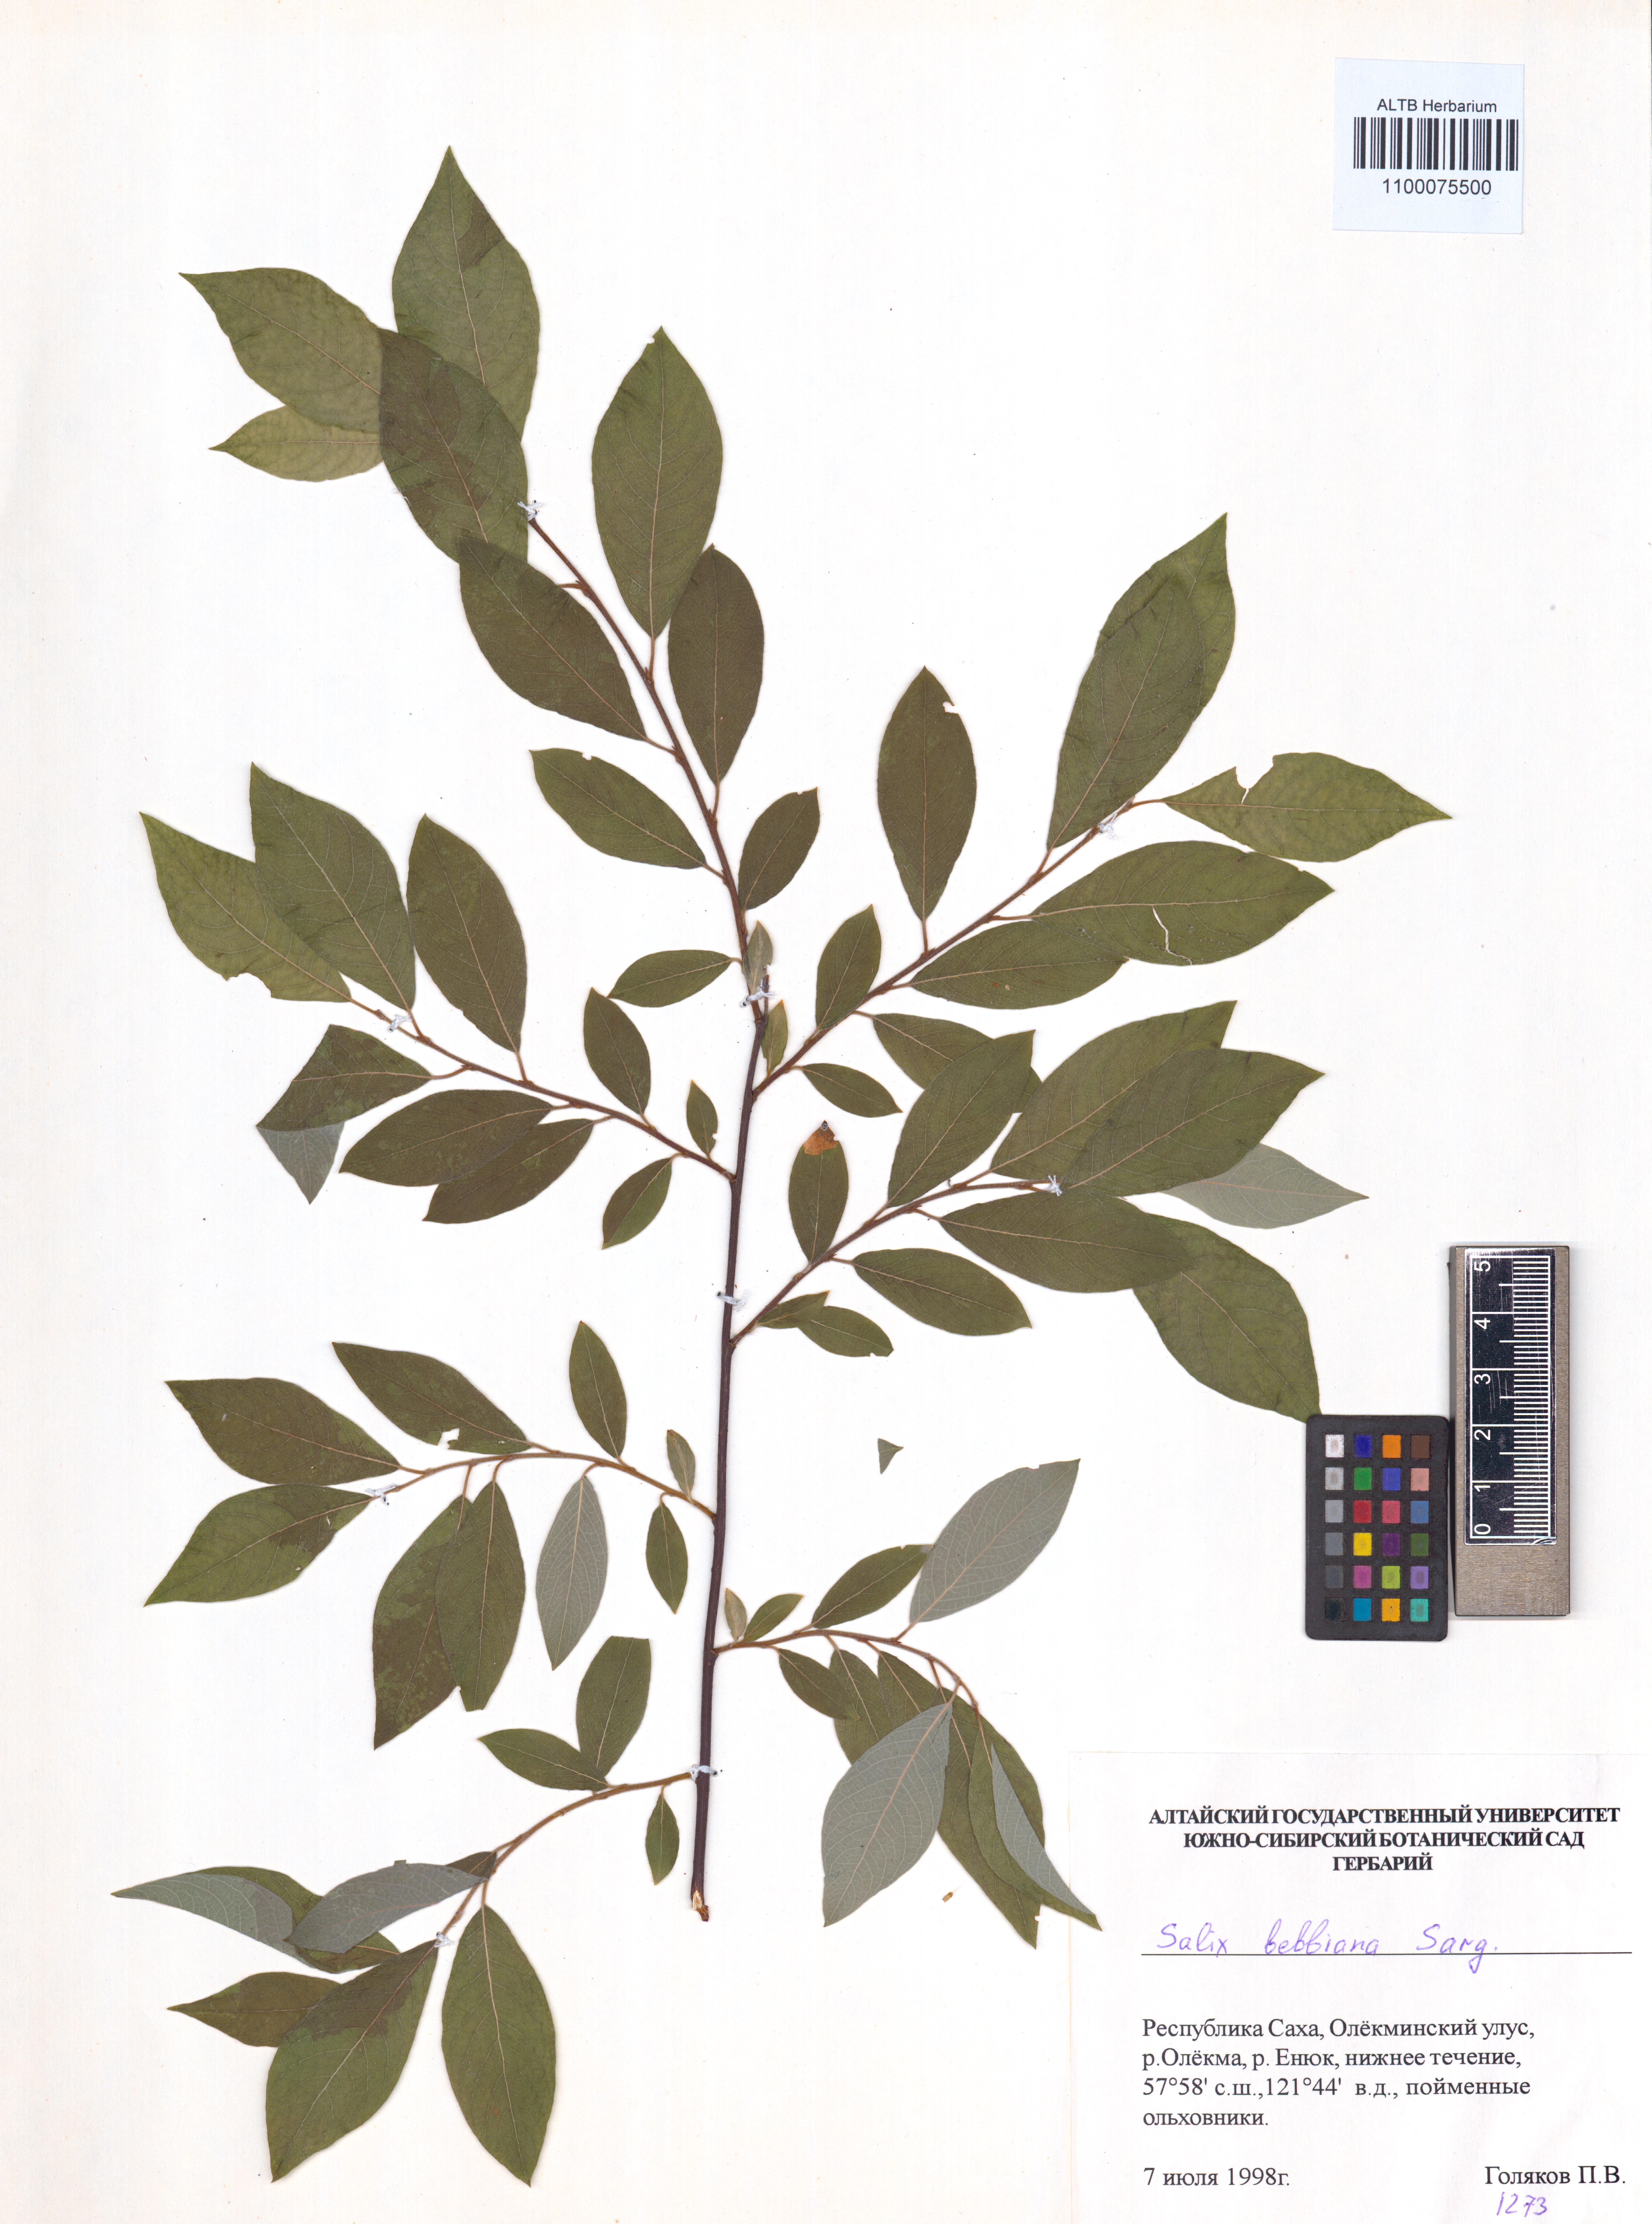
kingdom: Plantae
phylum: Tracheophyta
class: Magnoliopsida
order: Malpighiales
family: Salicaceae
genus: Salix
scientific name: Salix bebbiana
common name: Bebb's willow
